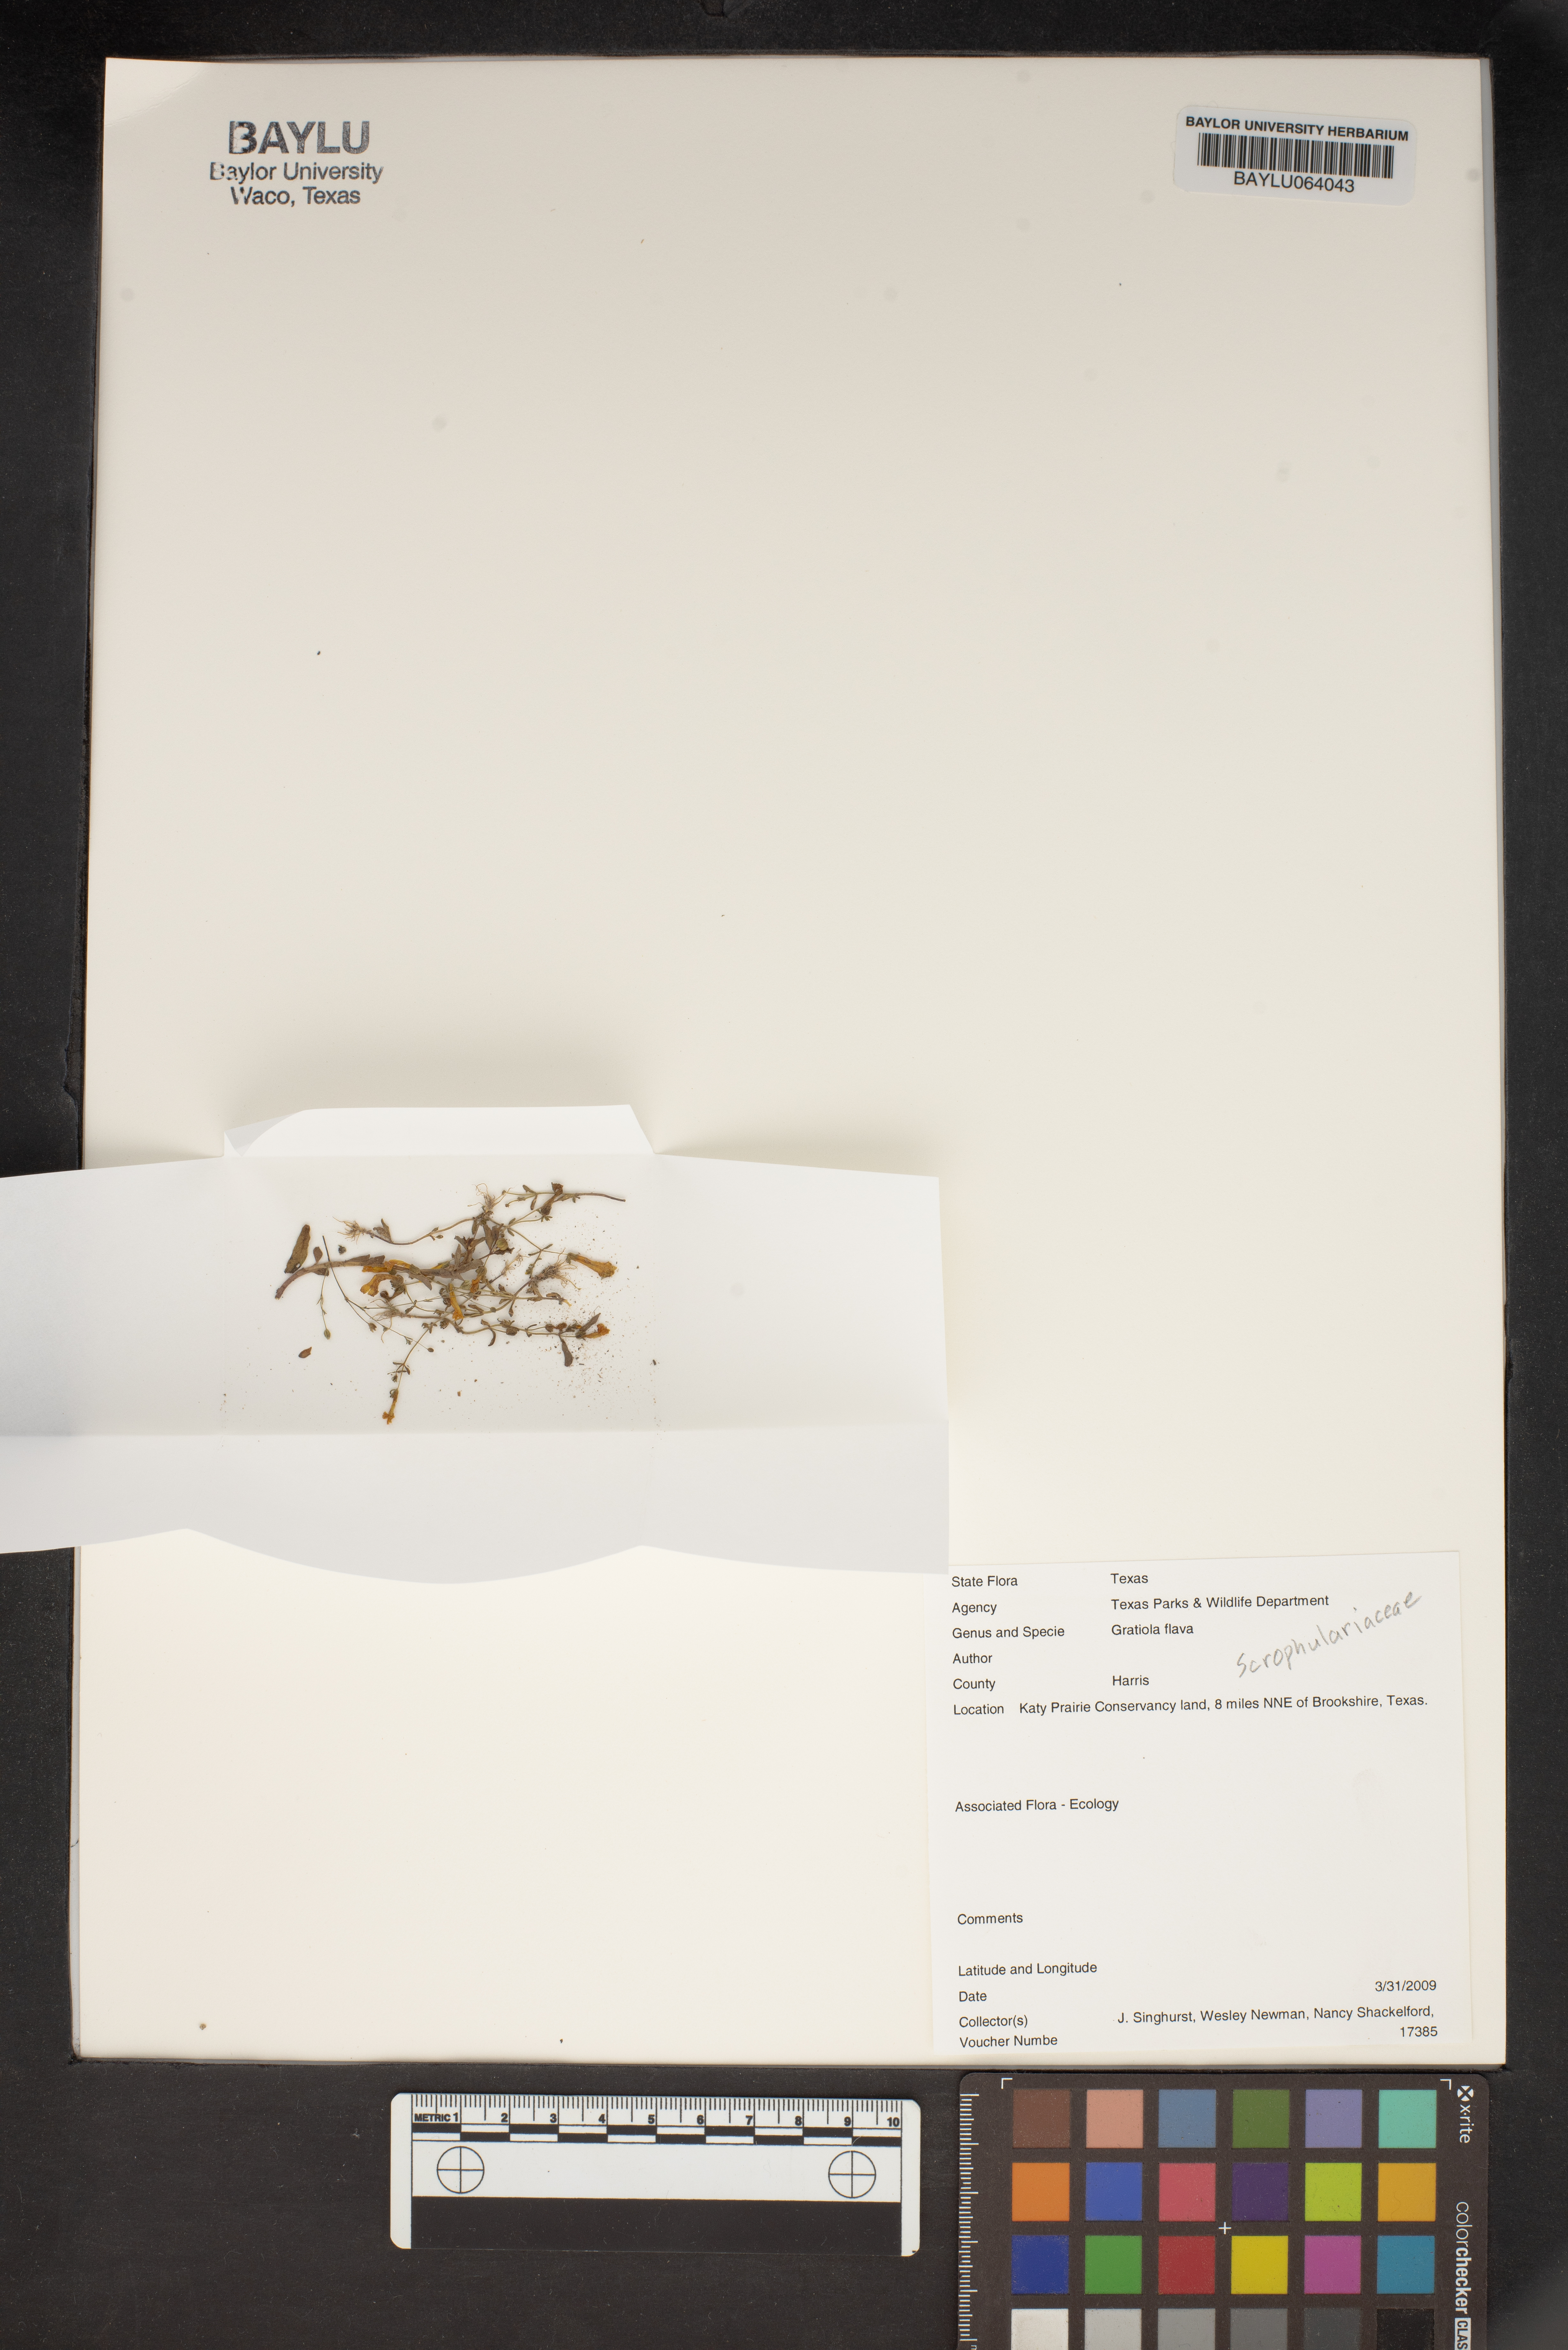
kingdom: Plantae
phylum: Tracheophyta
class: Magnoliopsida
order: Lamiales
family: Plantaginaceae
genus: Gratiola
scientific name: Gratiola flava
